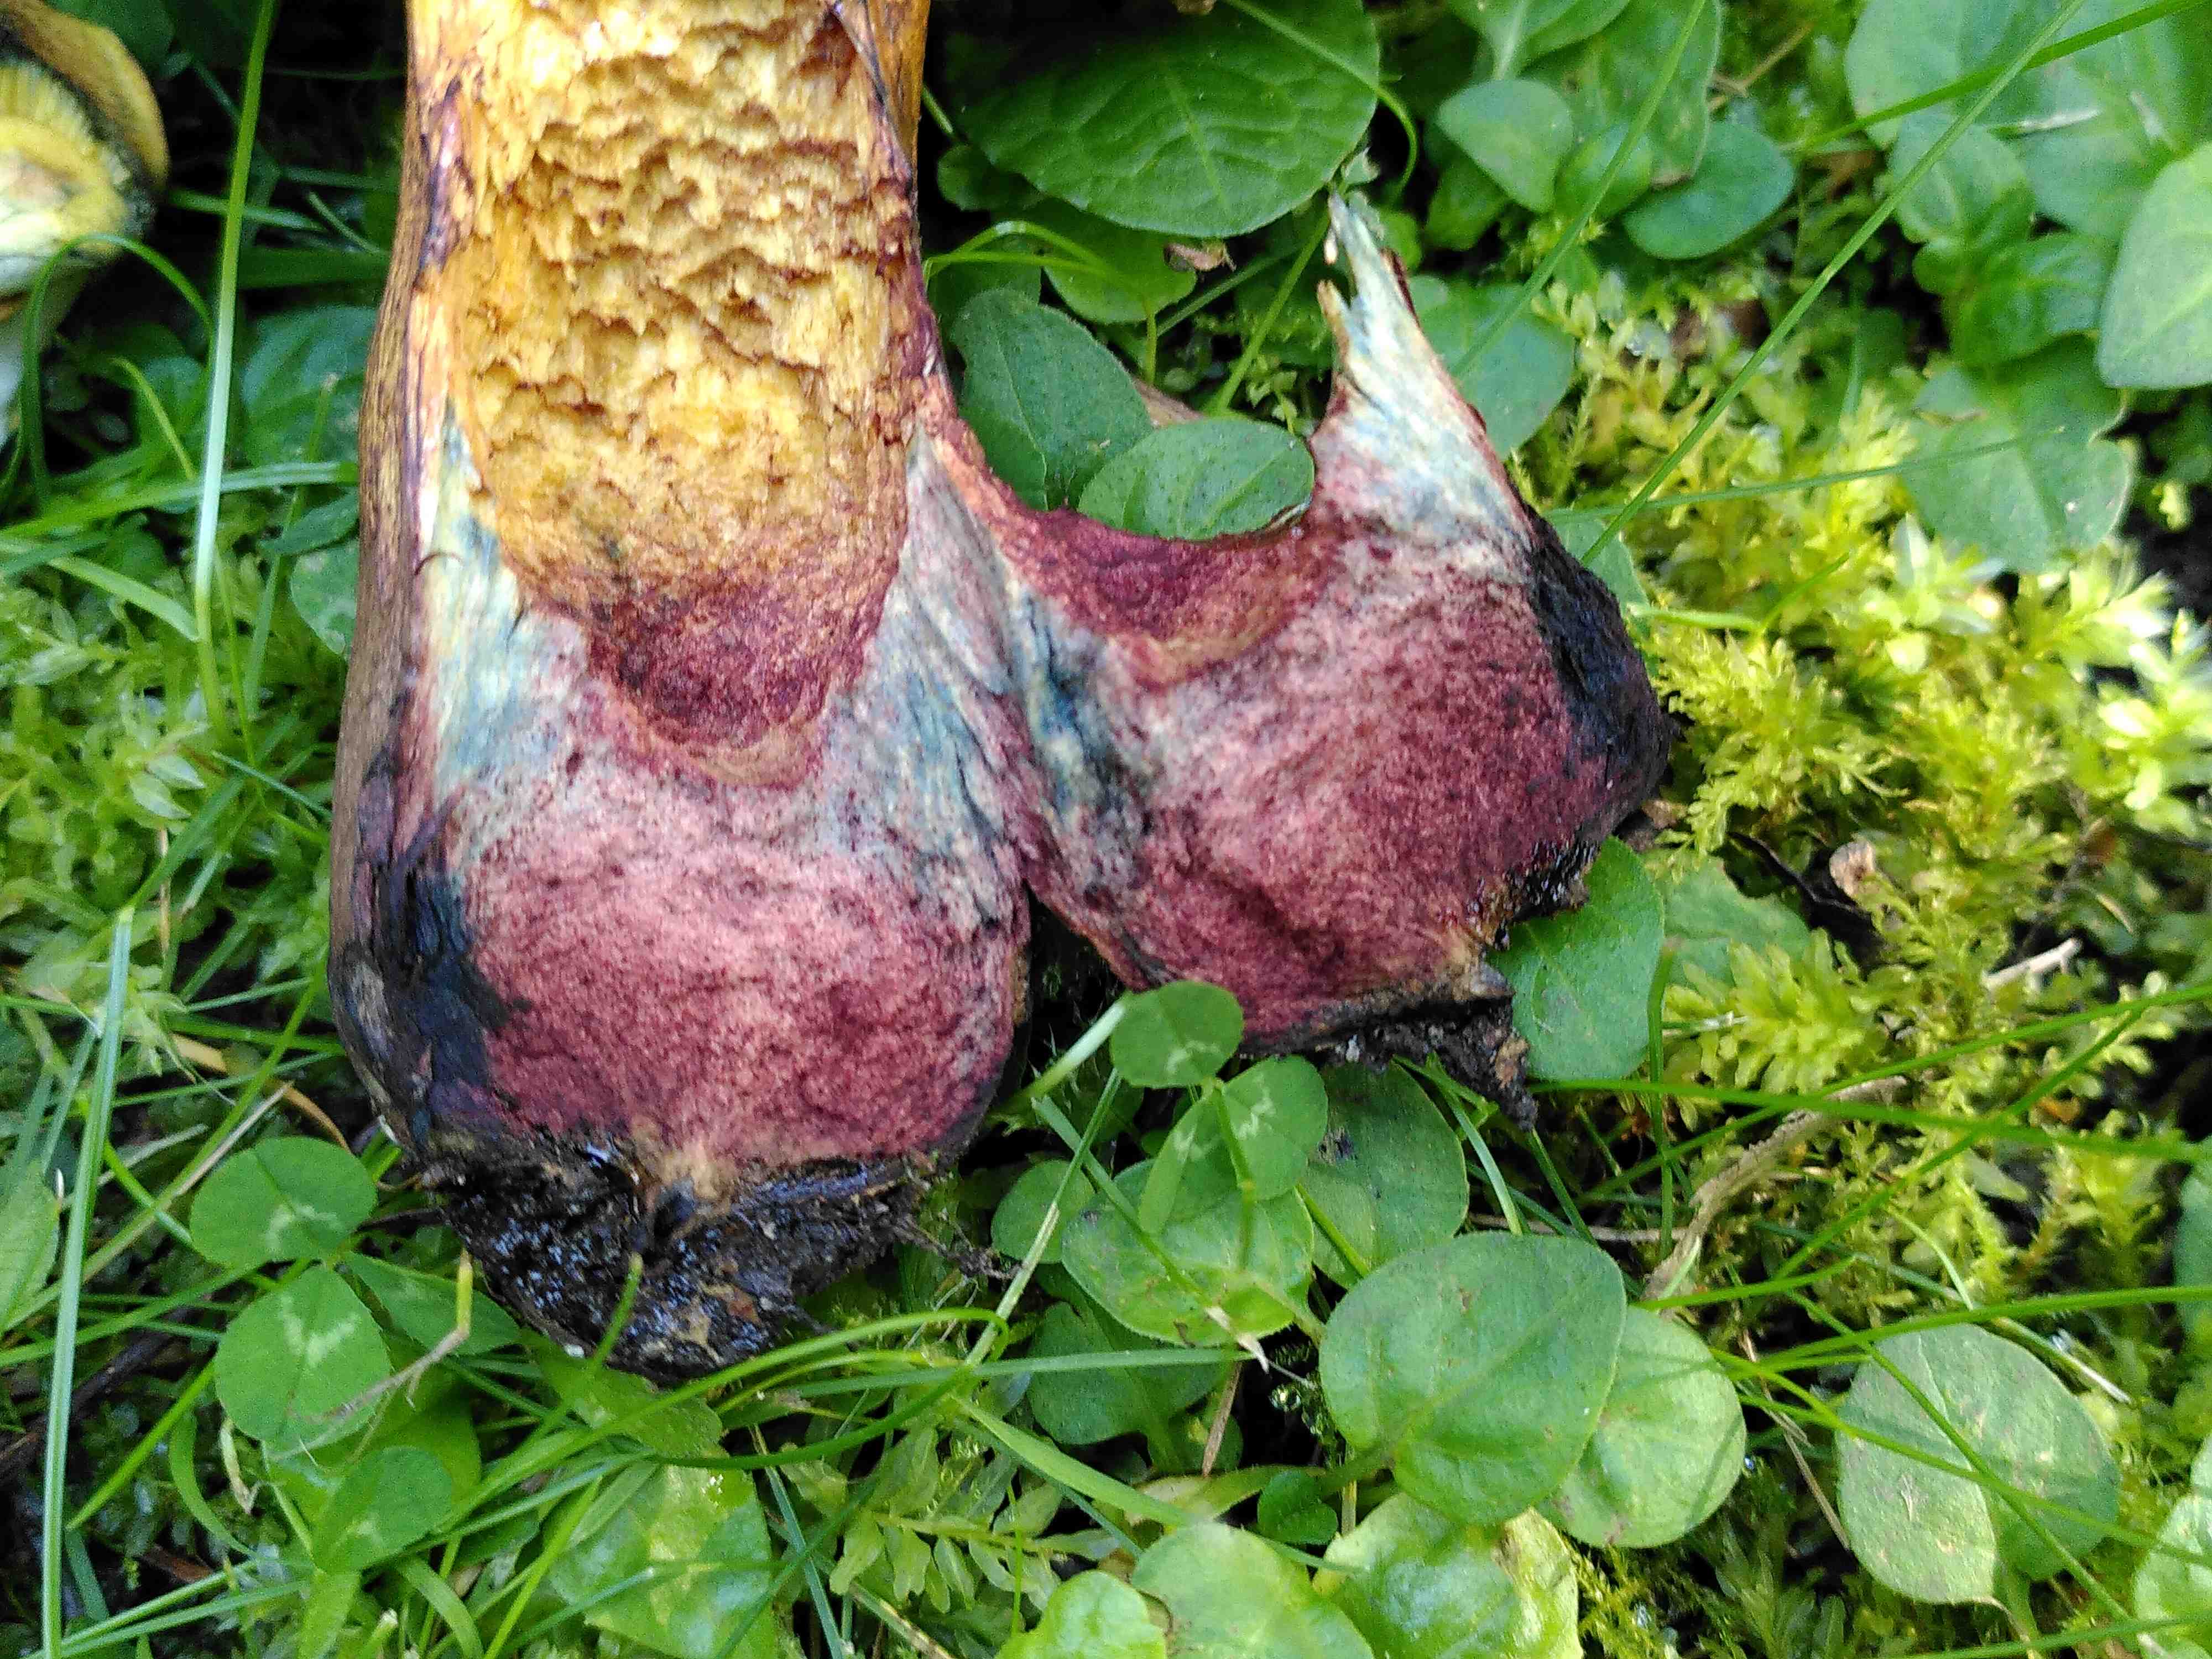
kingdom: Fungi
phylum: Basidiomycota
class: Agaricomycetes
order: Boletales
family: Boletaceae
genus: Suillellus
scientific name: Suillellus luridus
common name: netstokket indigorørhat
